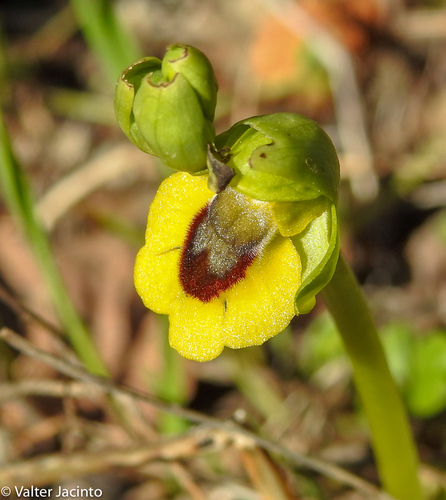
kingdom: Plantae
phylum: Tracheophyta
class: Liliopsida
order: Asparagales
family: Orchidaceae
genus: Ophrys
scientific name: Ophrys lutea
